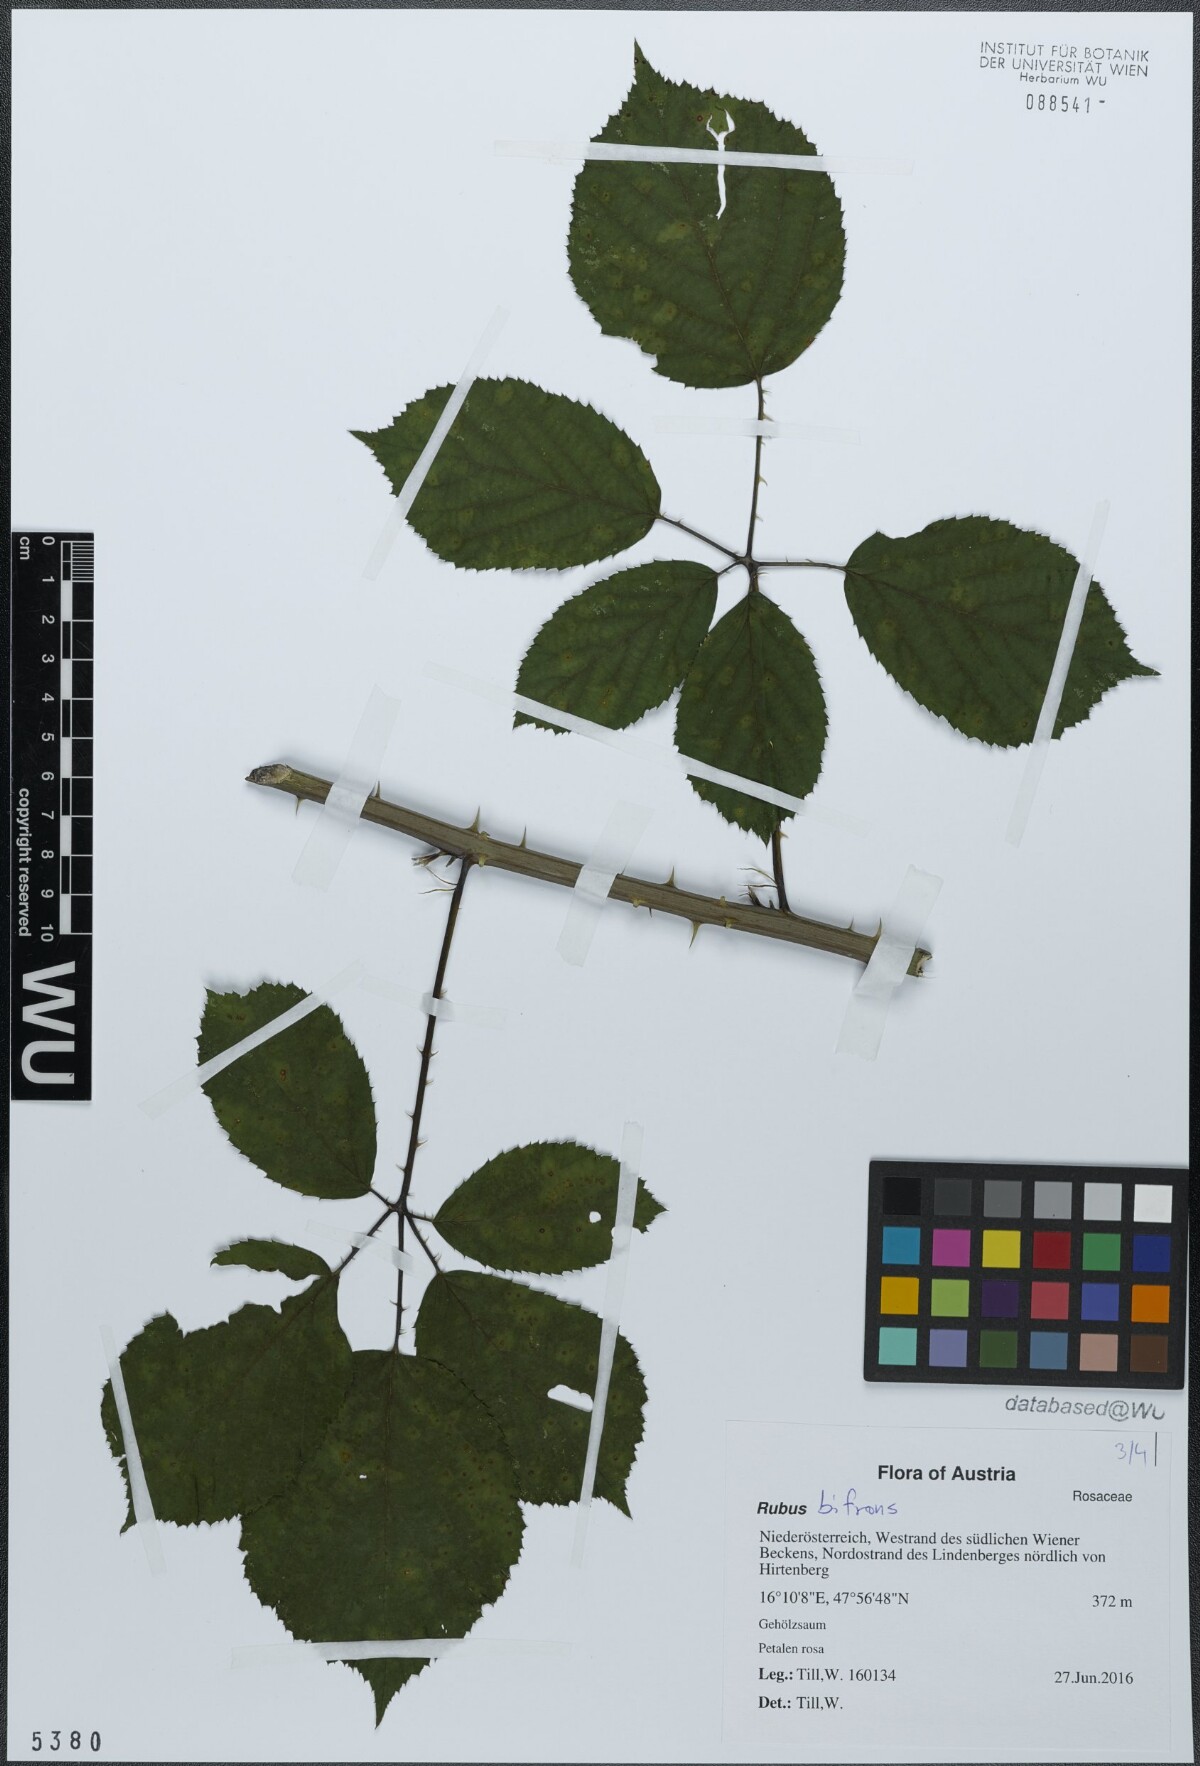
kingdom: Plantae
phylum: Tracheophyta
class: Magnoliopsida
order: Rosales
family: Rosaceae
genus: Rubus
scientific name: Rubus bifrons
